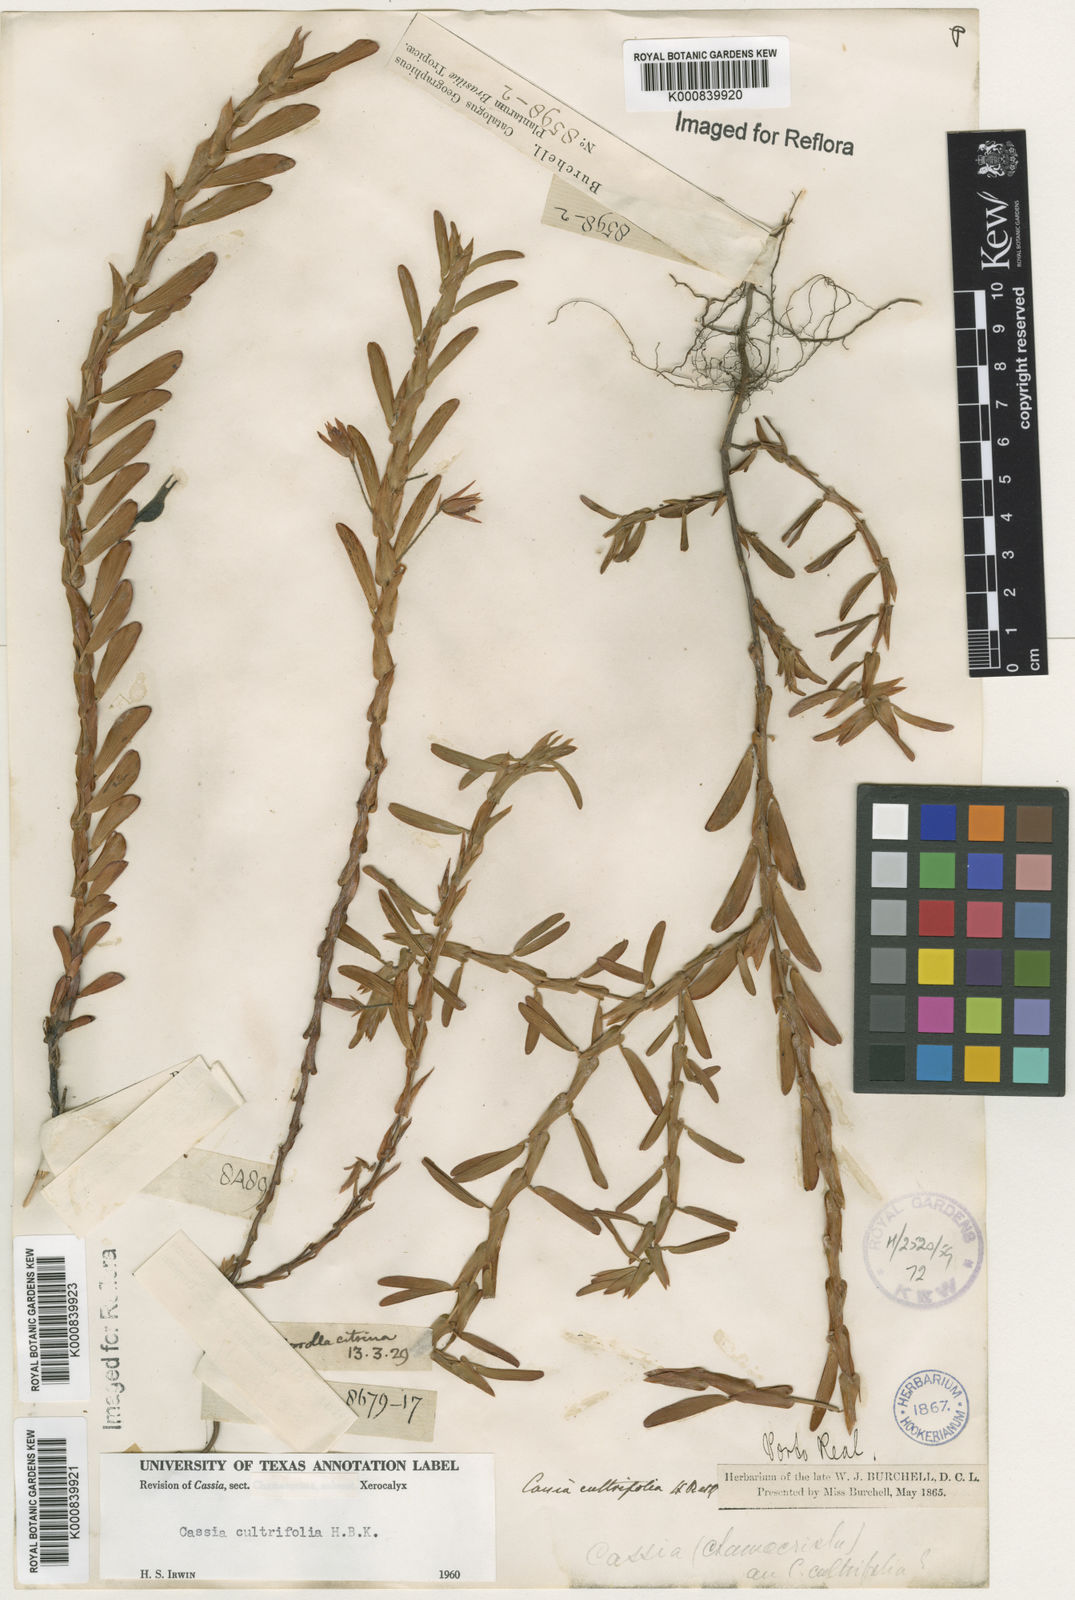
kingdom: Plantae
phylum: Tracheophyta
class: Magnoliopsida
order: Fabales
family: Fabaceae
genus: Chamaecrista
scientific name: Chamaecrista diphylla
